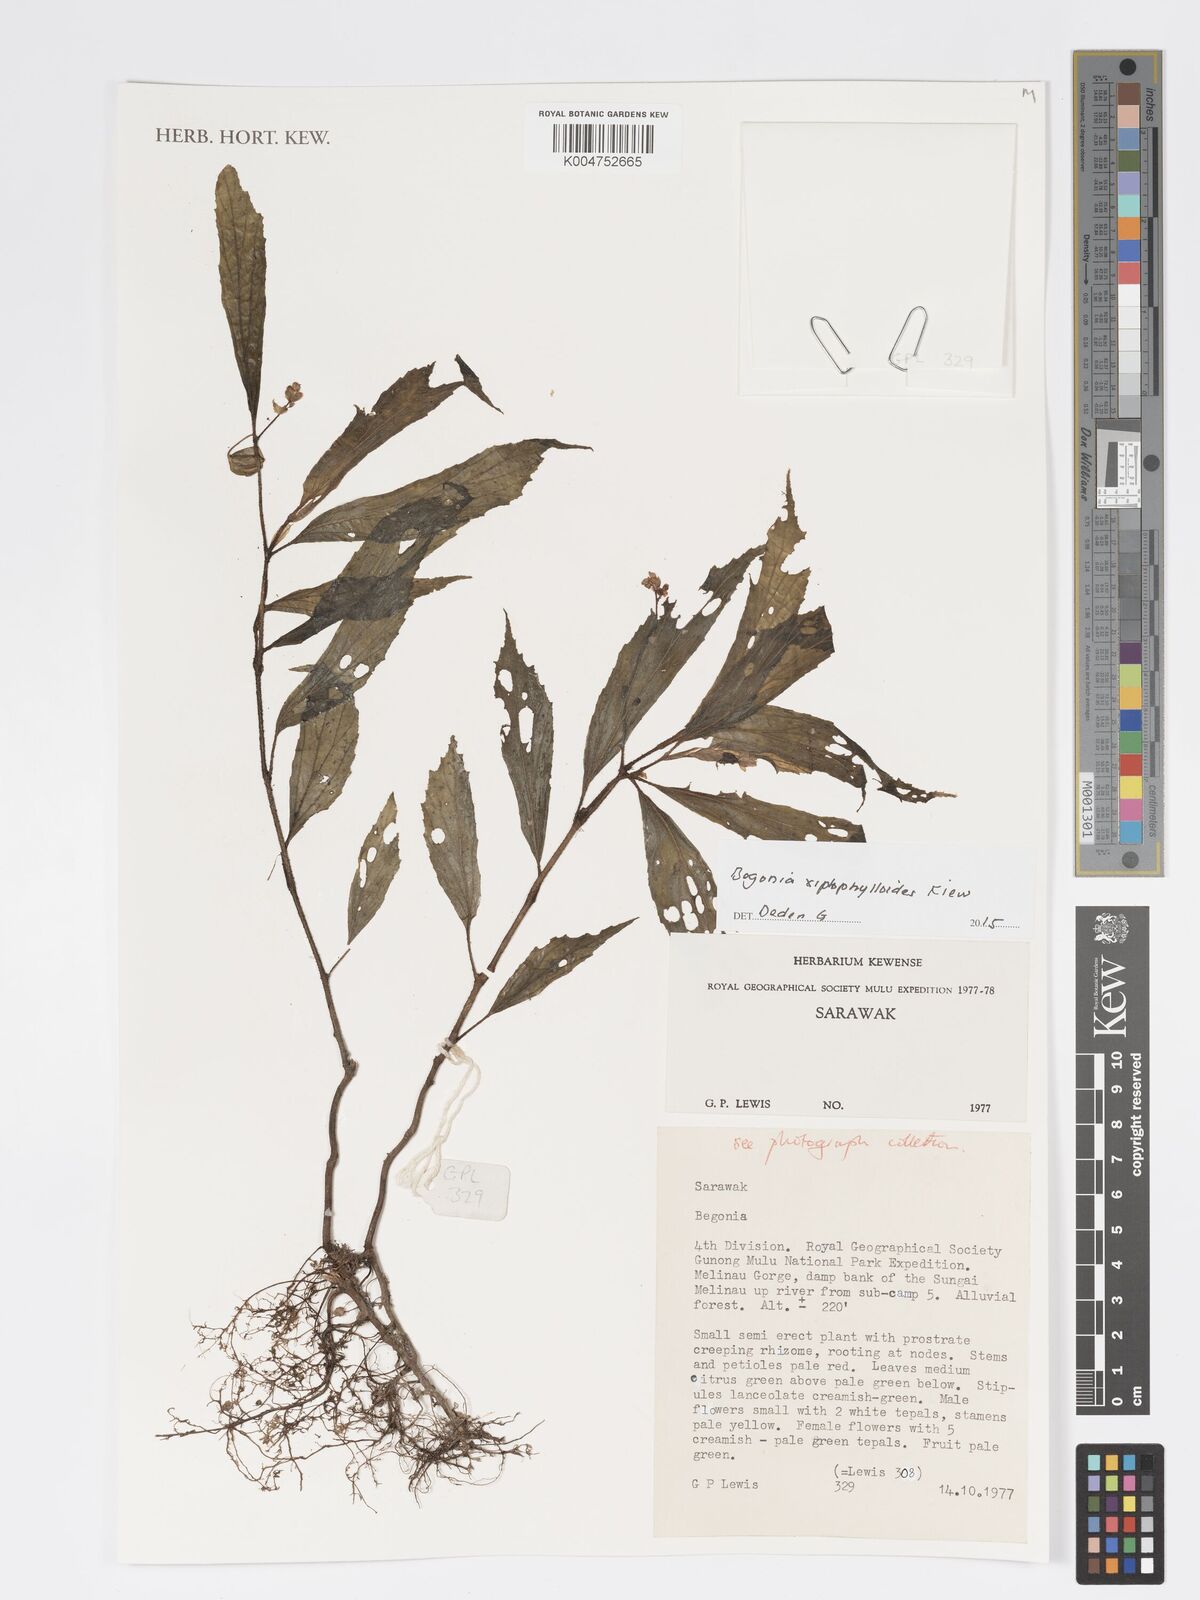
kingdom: Plantae
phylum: Tracheophyta
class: Magnoliopsida
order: Cucurbitales
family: Begoniaceae
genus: Begonia
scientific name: Begonia xiphophylloides
